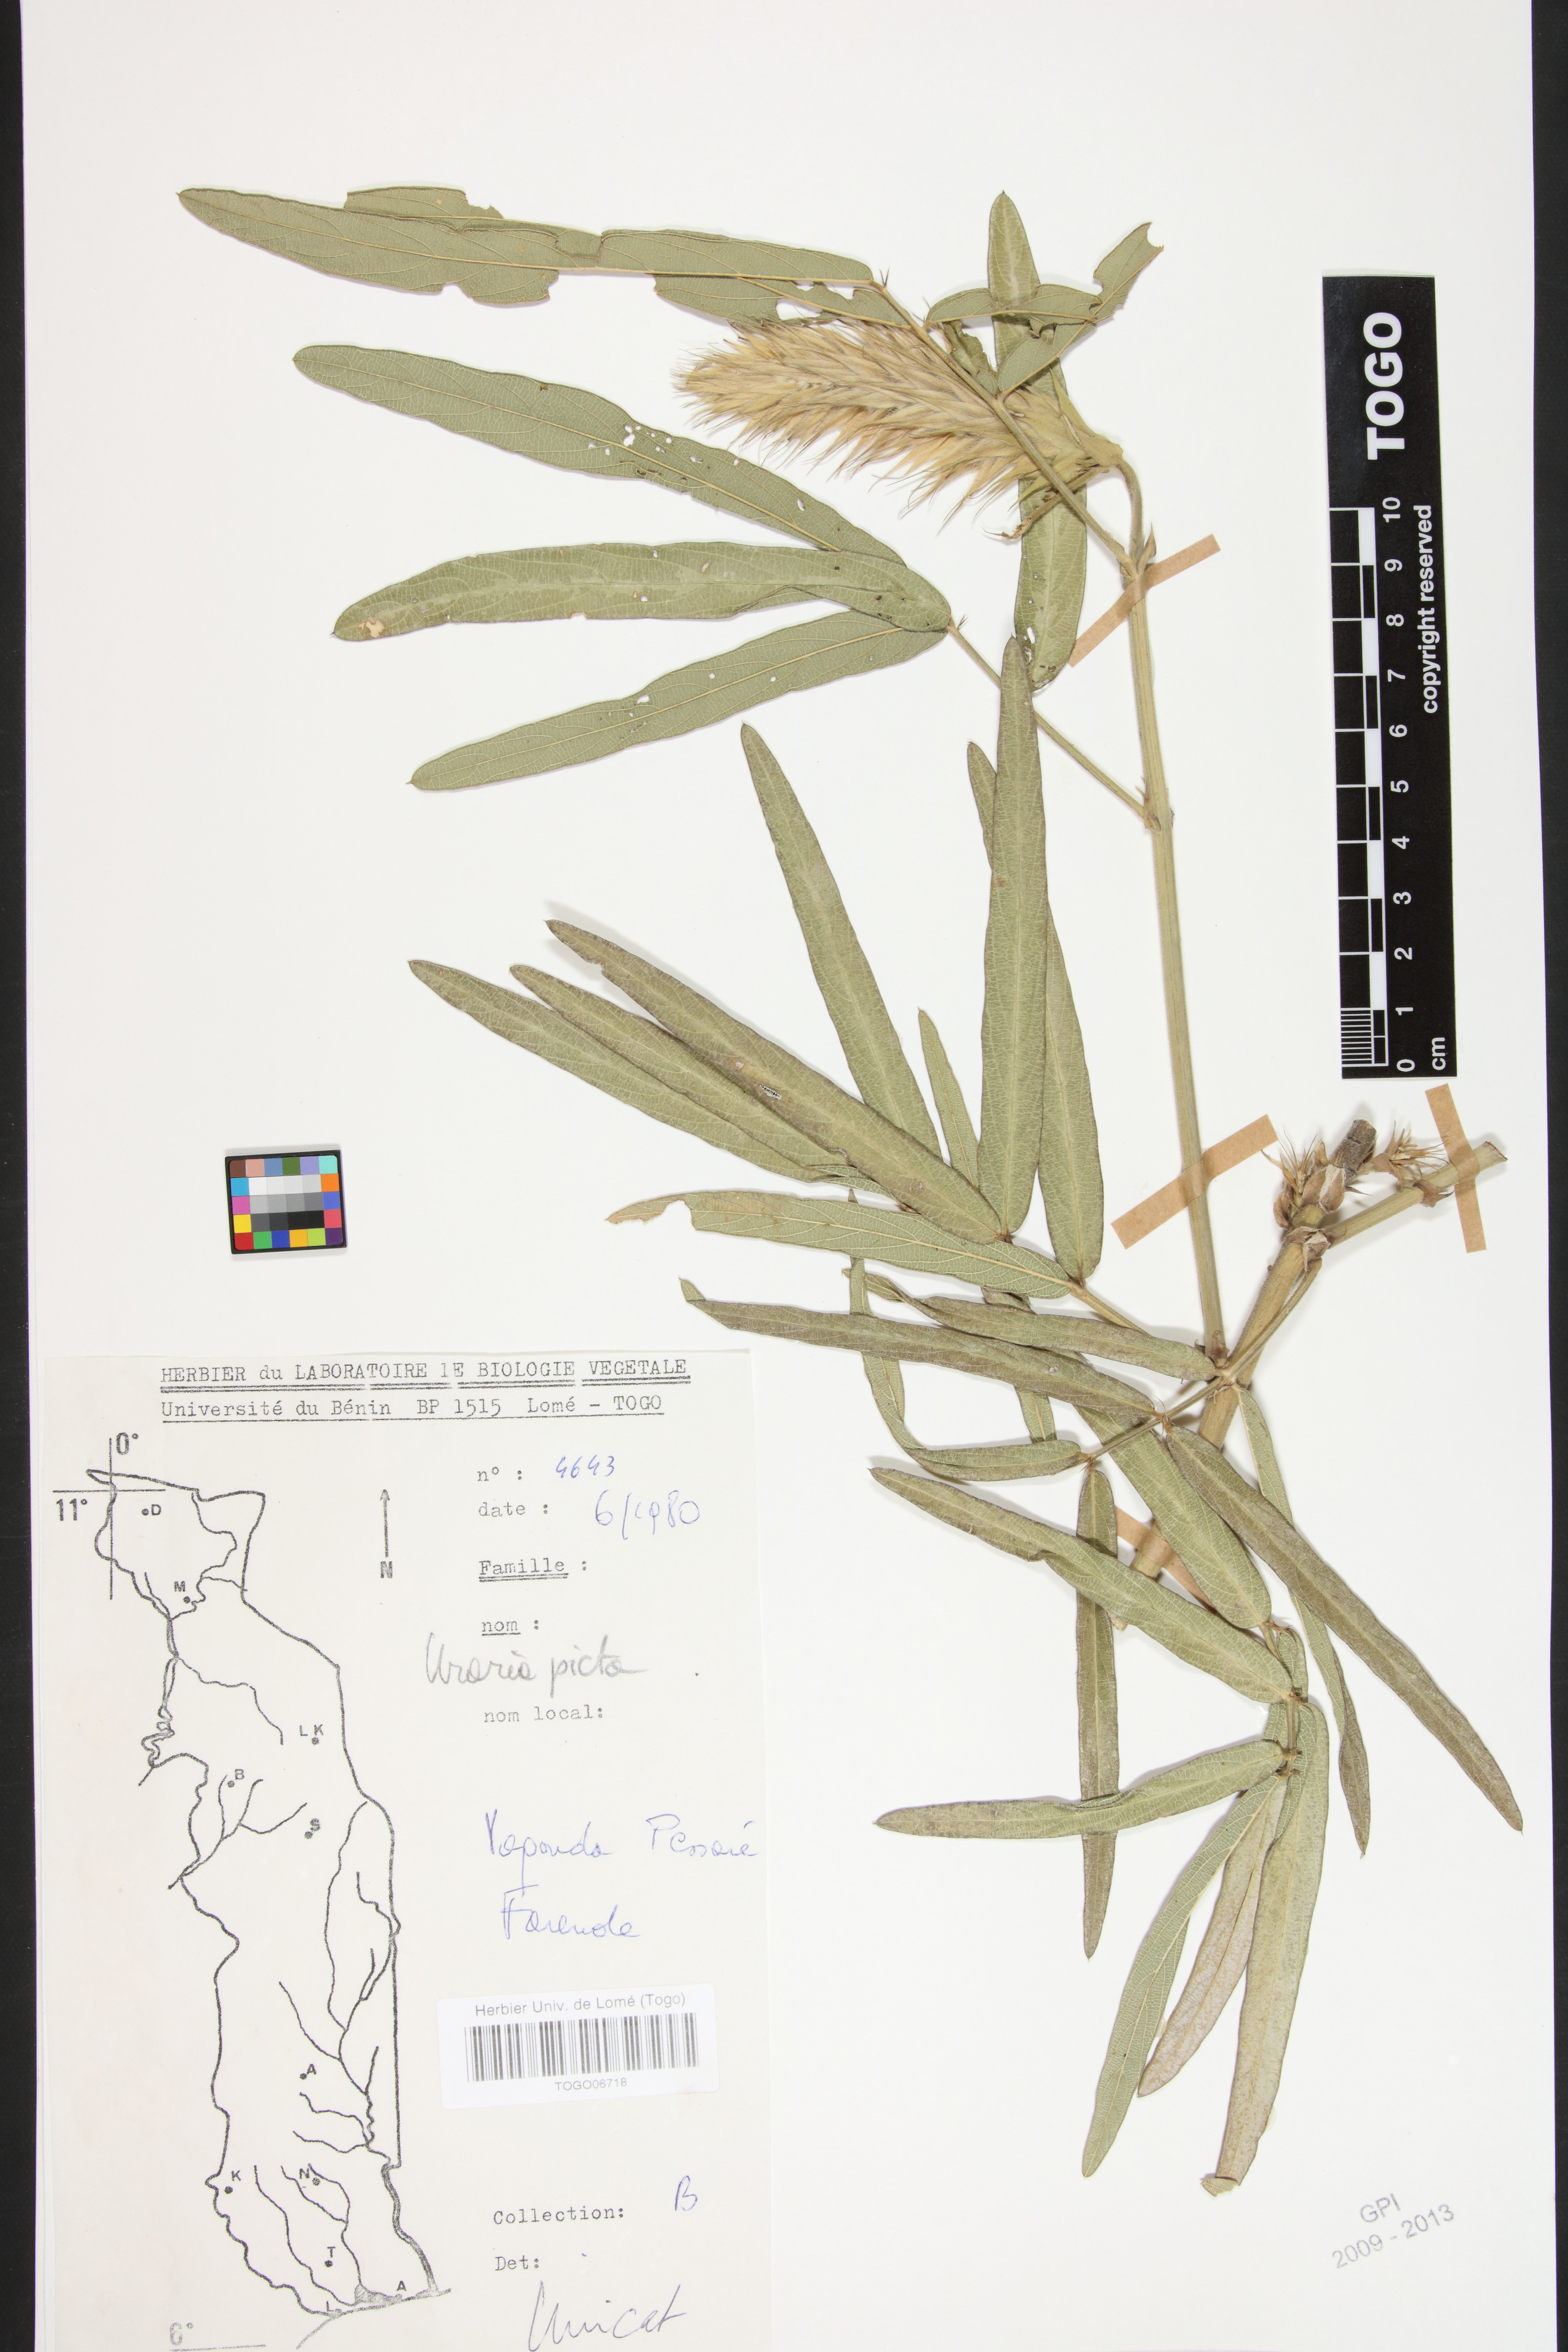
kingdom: Plantae
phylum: Tracheophyta
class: Magnoliopsida
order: Fabales
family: Fabaceae
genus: Uraria
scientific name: Uraria picta
